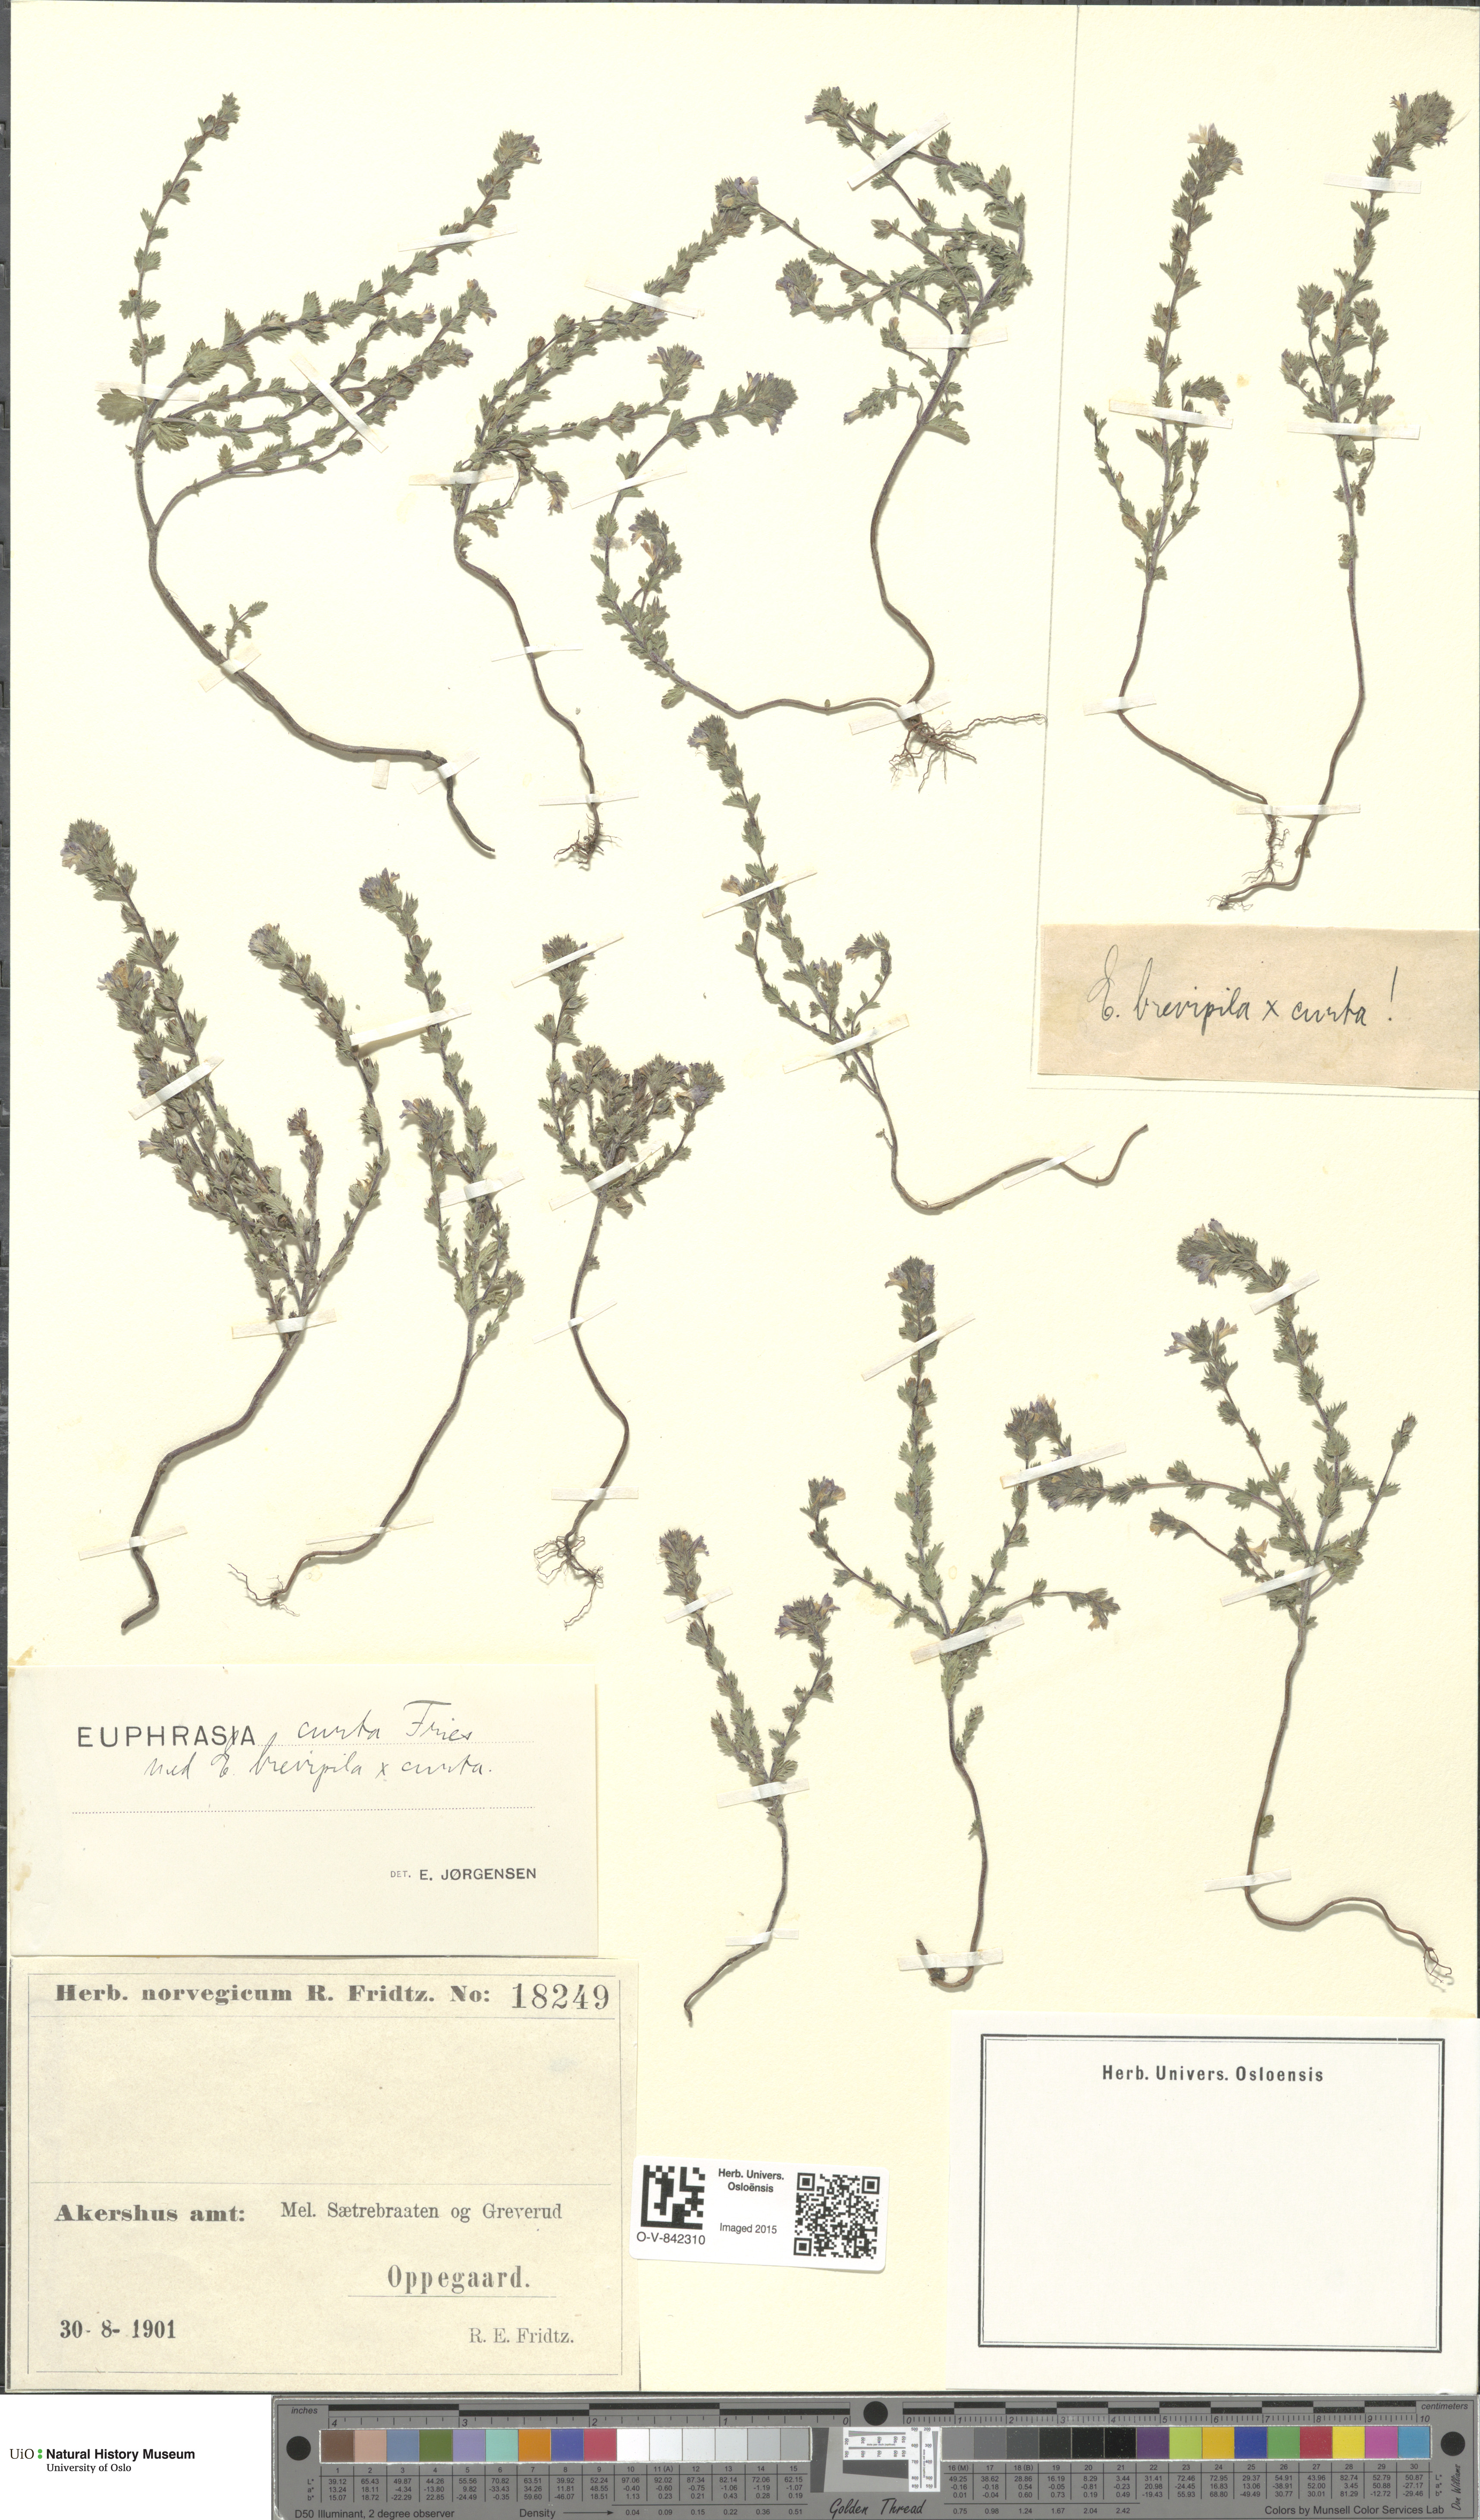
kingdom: Plantae
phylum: Tracheophyta
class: Magnoliopsida
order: Lamiales
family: Orobanchaceae
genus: Euphrasia
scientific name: Euphrasia micrantha
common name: Northern eyebright
